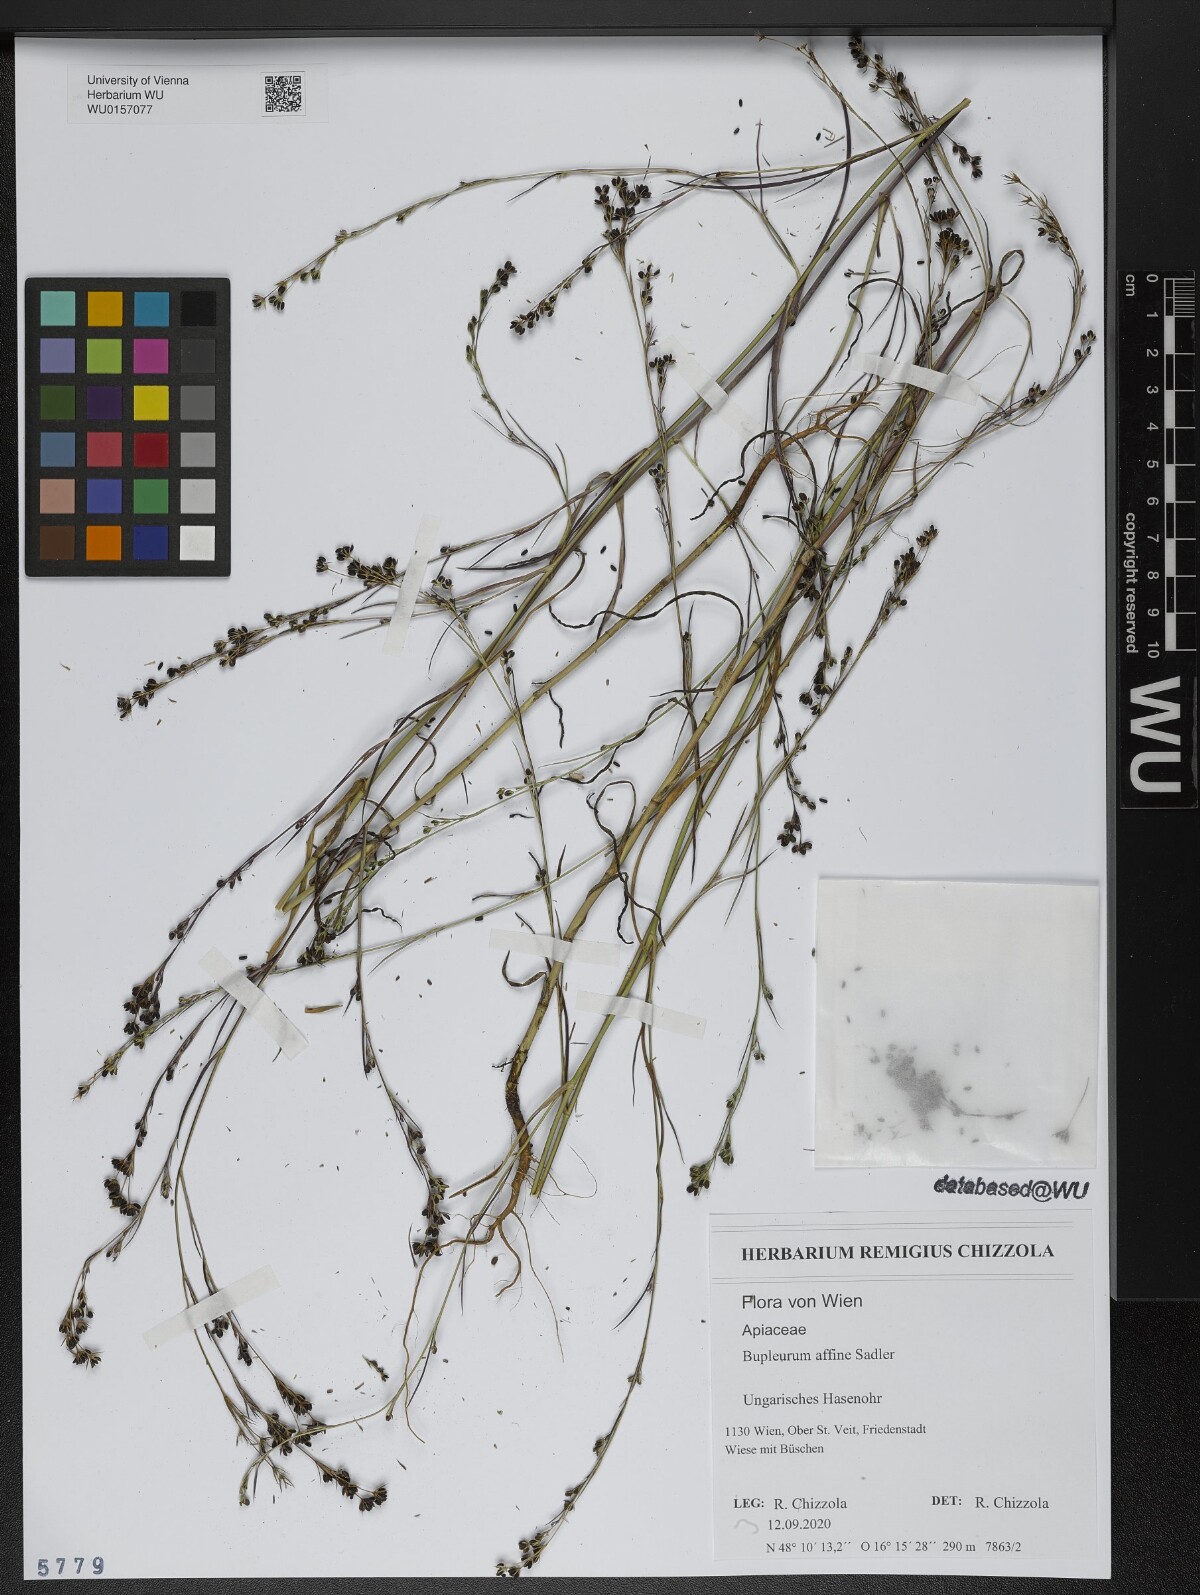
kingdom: Plantae
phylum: Tracheophyta
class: Magnoliopsida
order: Apiales
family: Apiaceae
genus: Bupleurum
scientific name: Bupleurum affine
